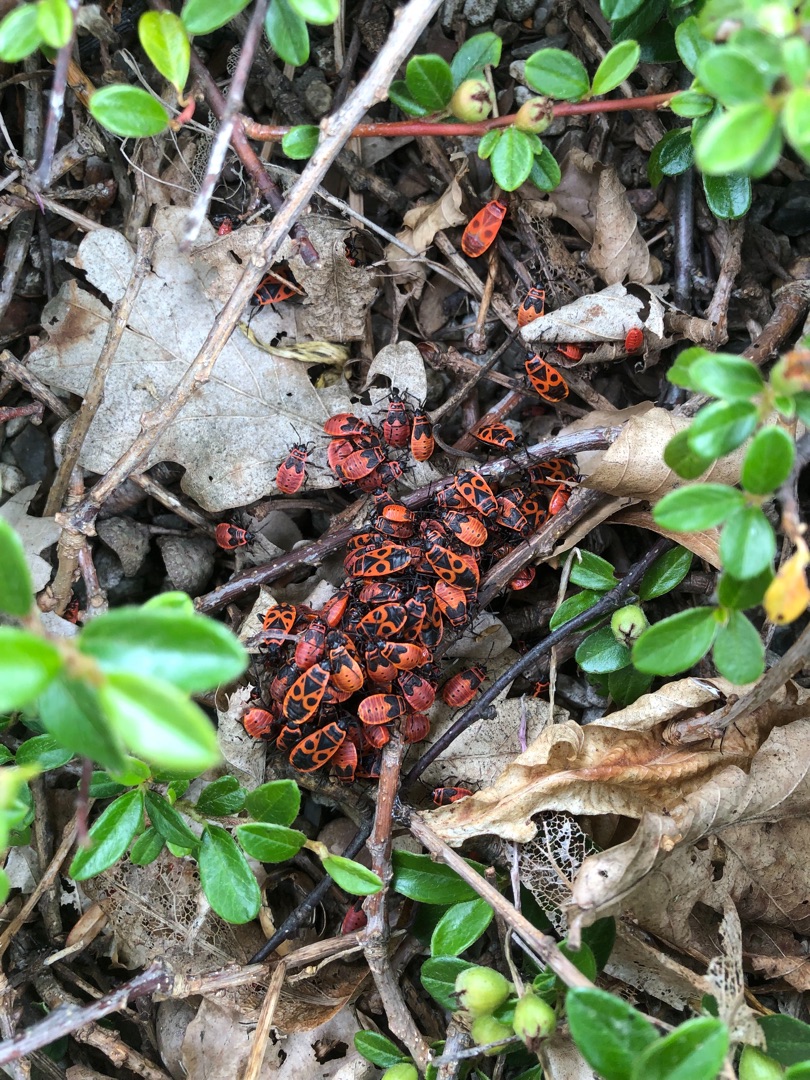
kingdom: Animalia
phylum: Arthropoda
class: Insecta
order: Hemiptera
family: Pyrrhocoridae
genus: Pyrrhocoris
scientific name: Pyrrhocoris apterus
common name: Ildtæge
